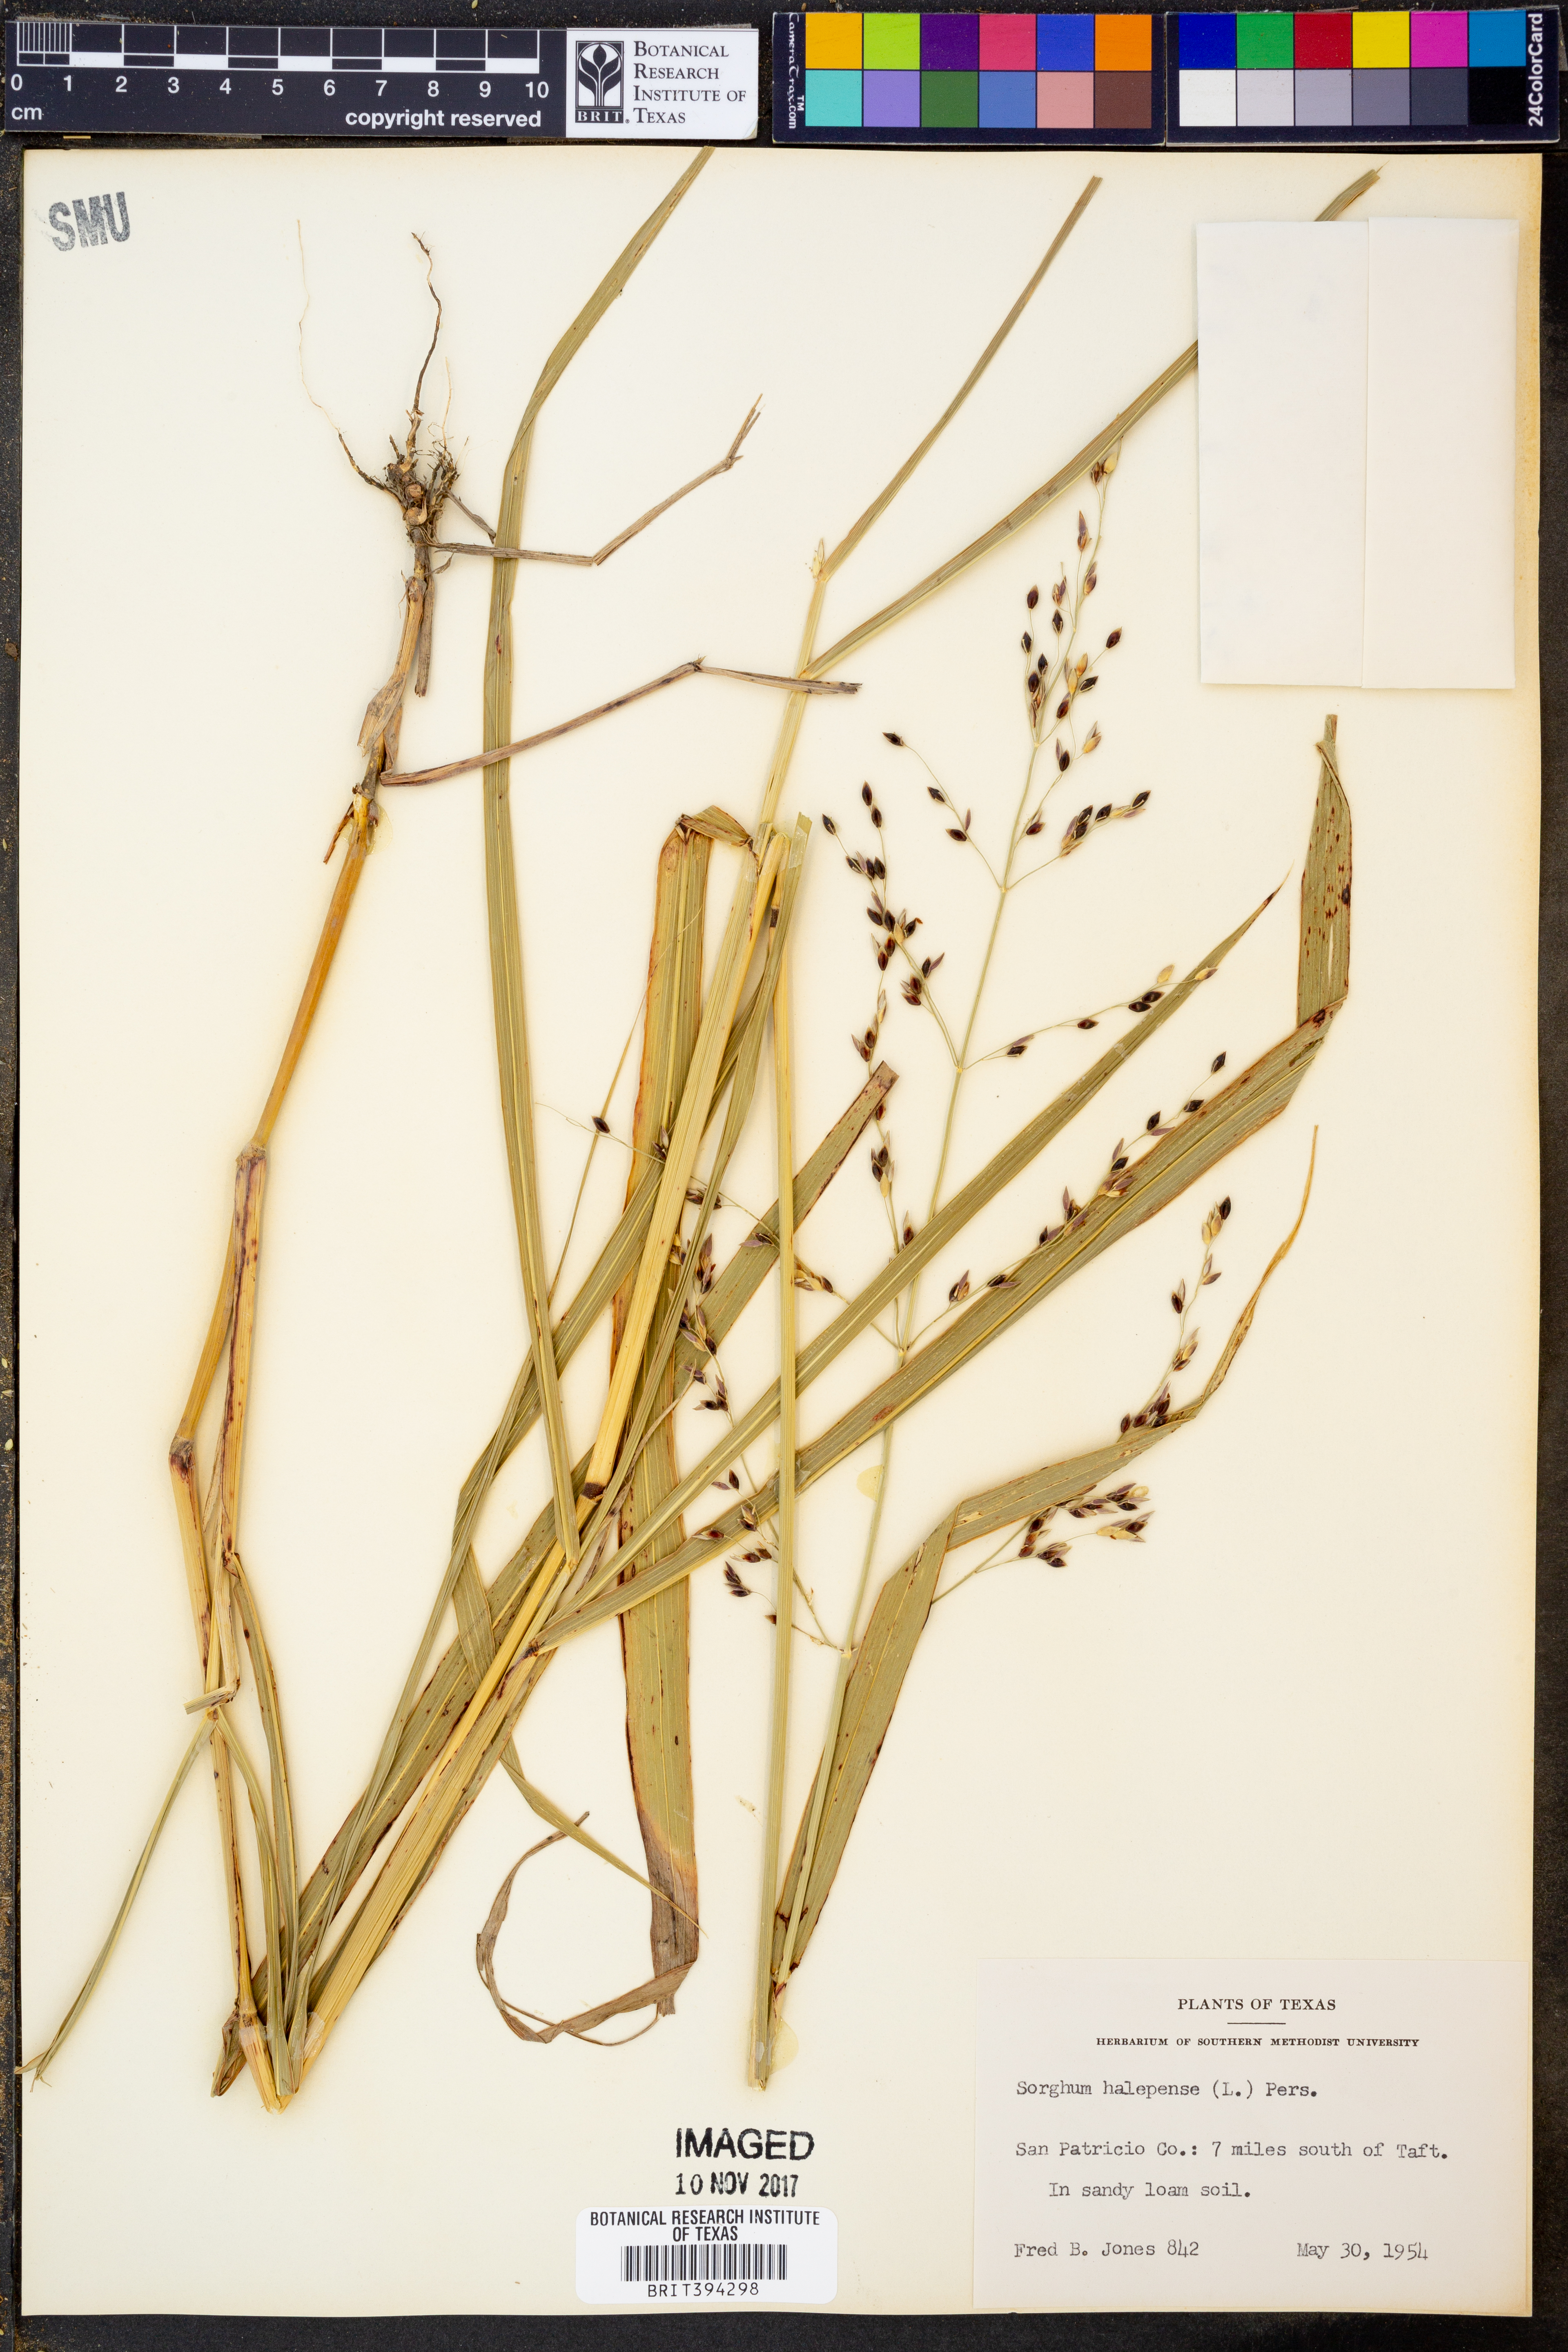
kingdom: Plantae
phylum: Tracheophyta
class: Liliopsida
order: Poales
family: Poaceae
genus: Sorghum
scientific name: Sorghum halepense
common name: Johnson-grass
